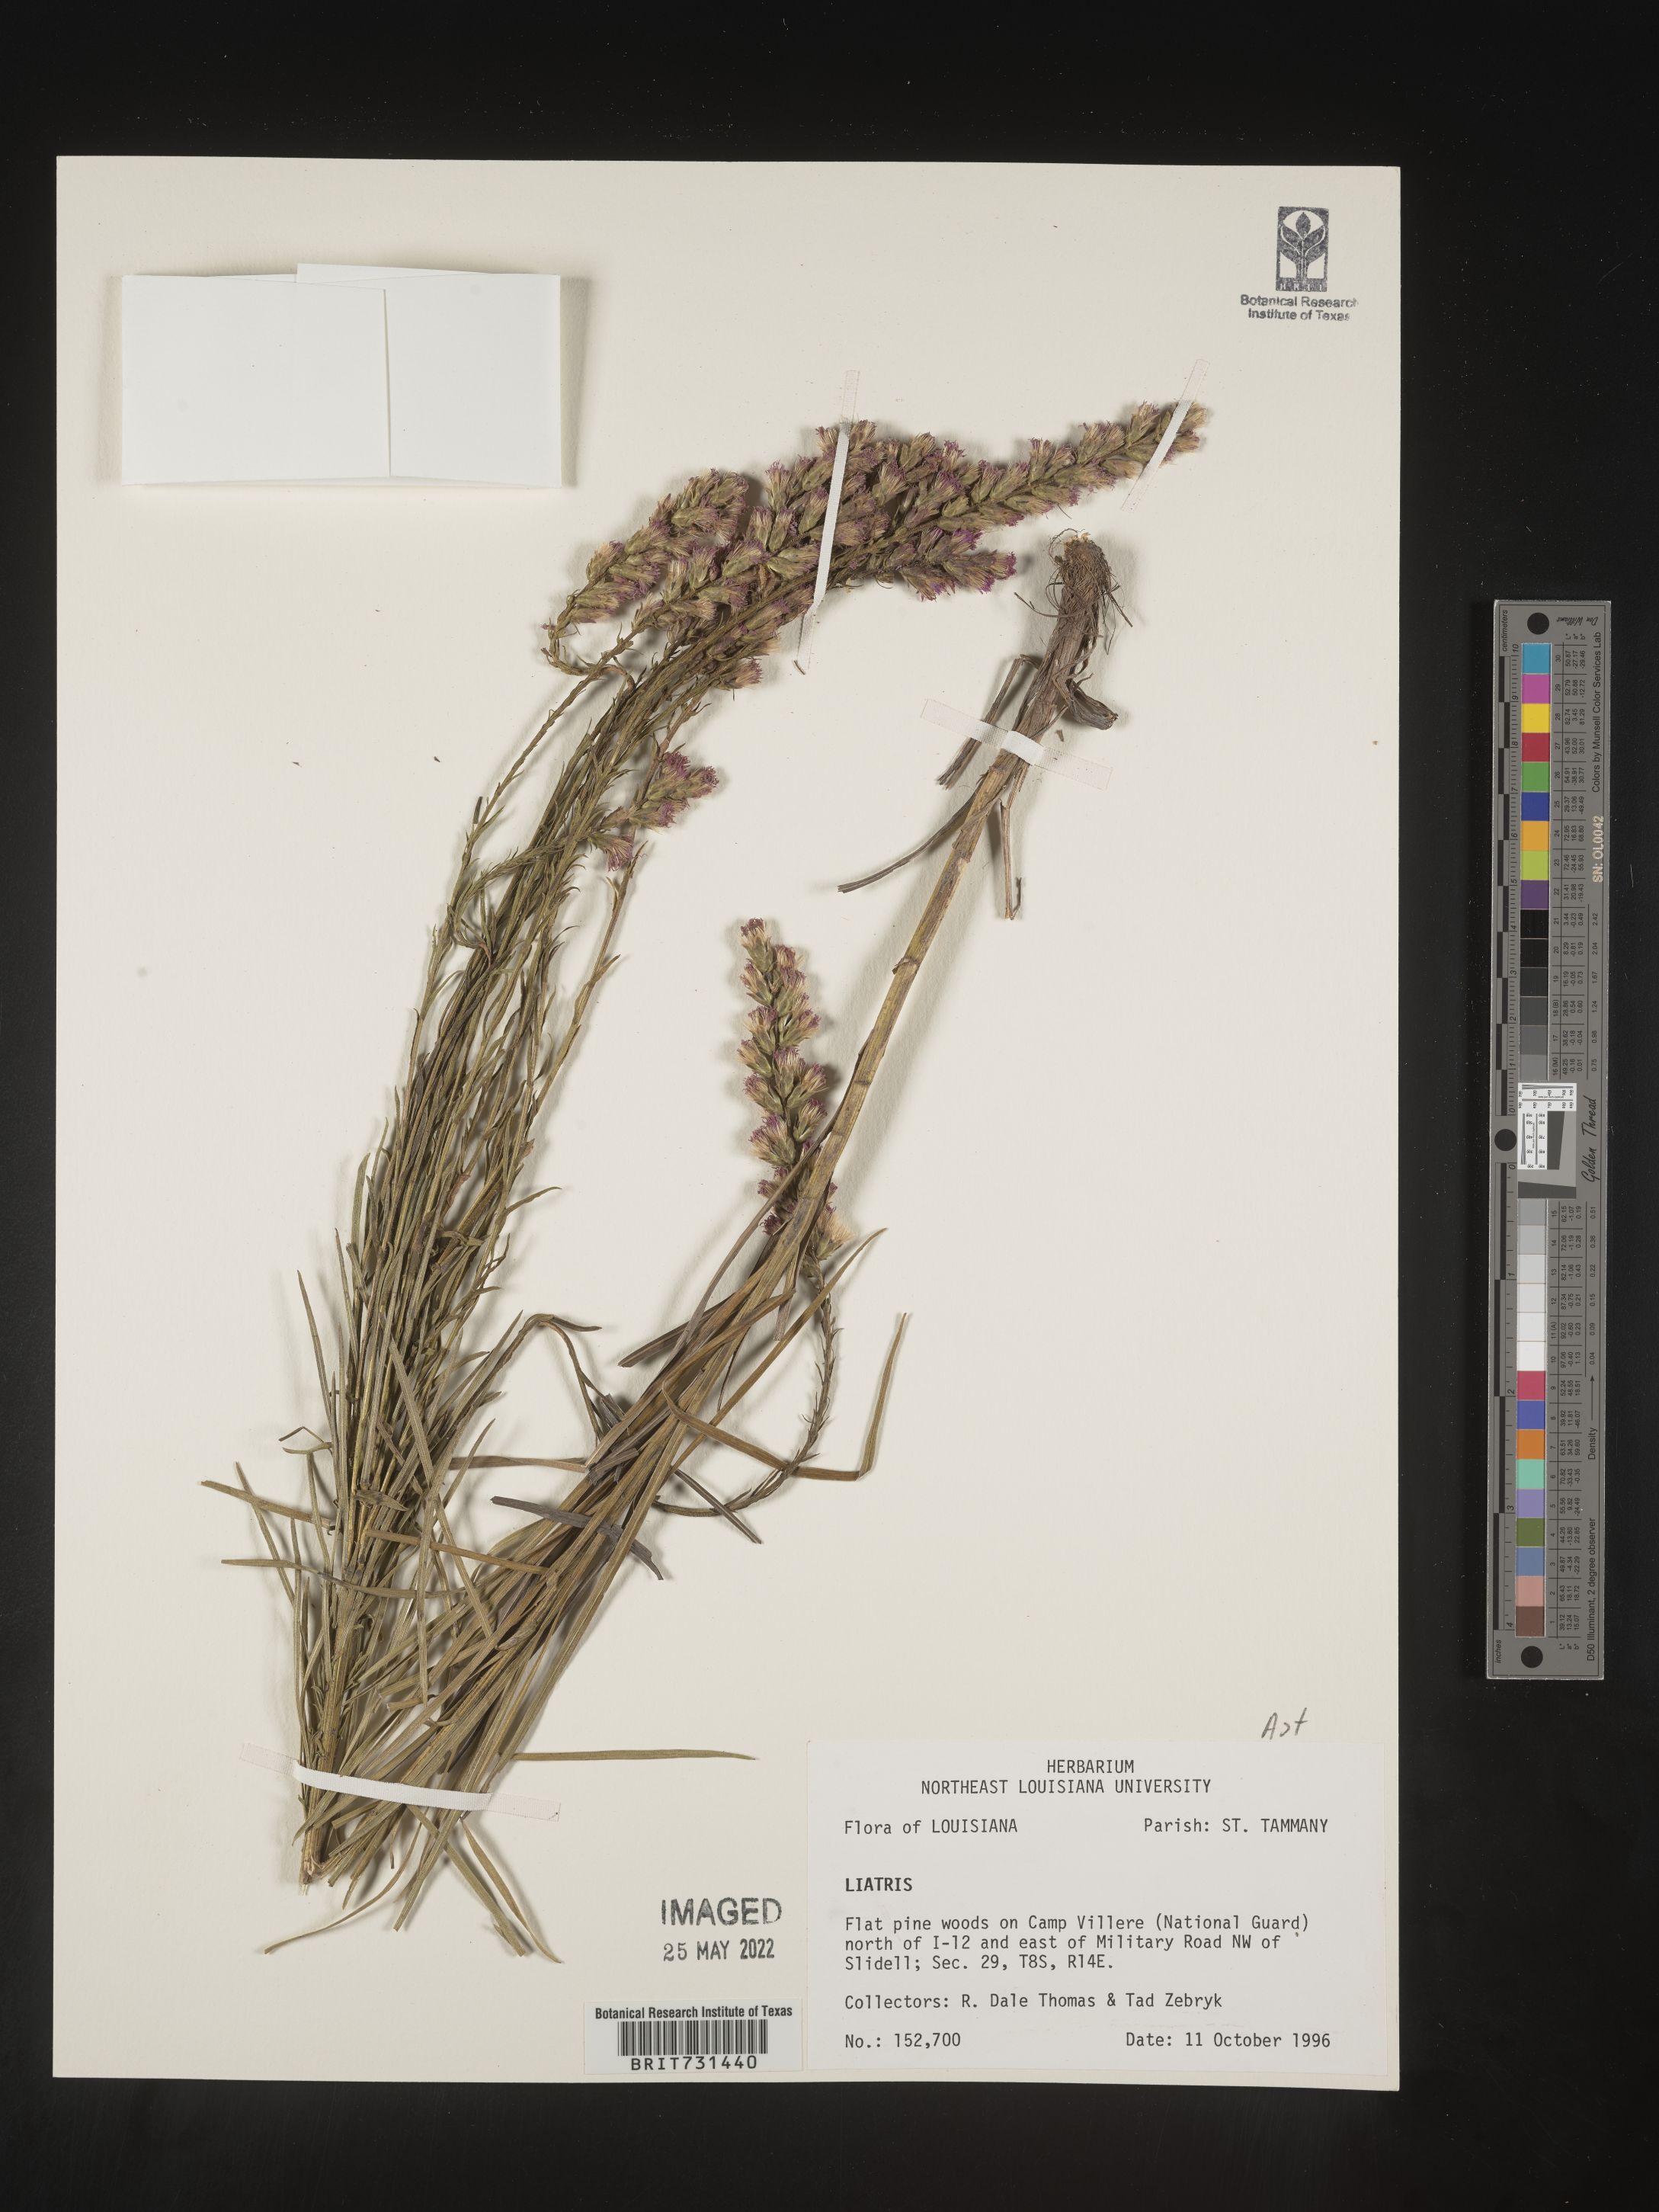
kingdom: Plantae
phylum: Tracheophyta
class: Magnoliopsida
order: Asterales
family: Asteraceae
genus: Liatris
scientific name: Liatris
